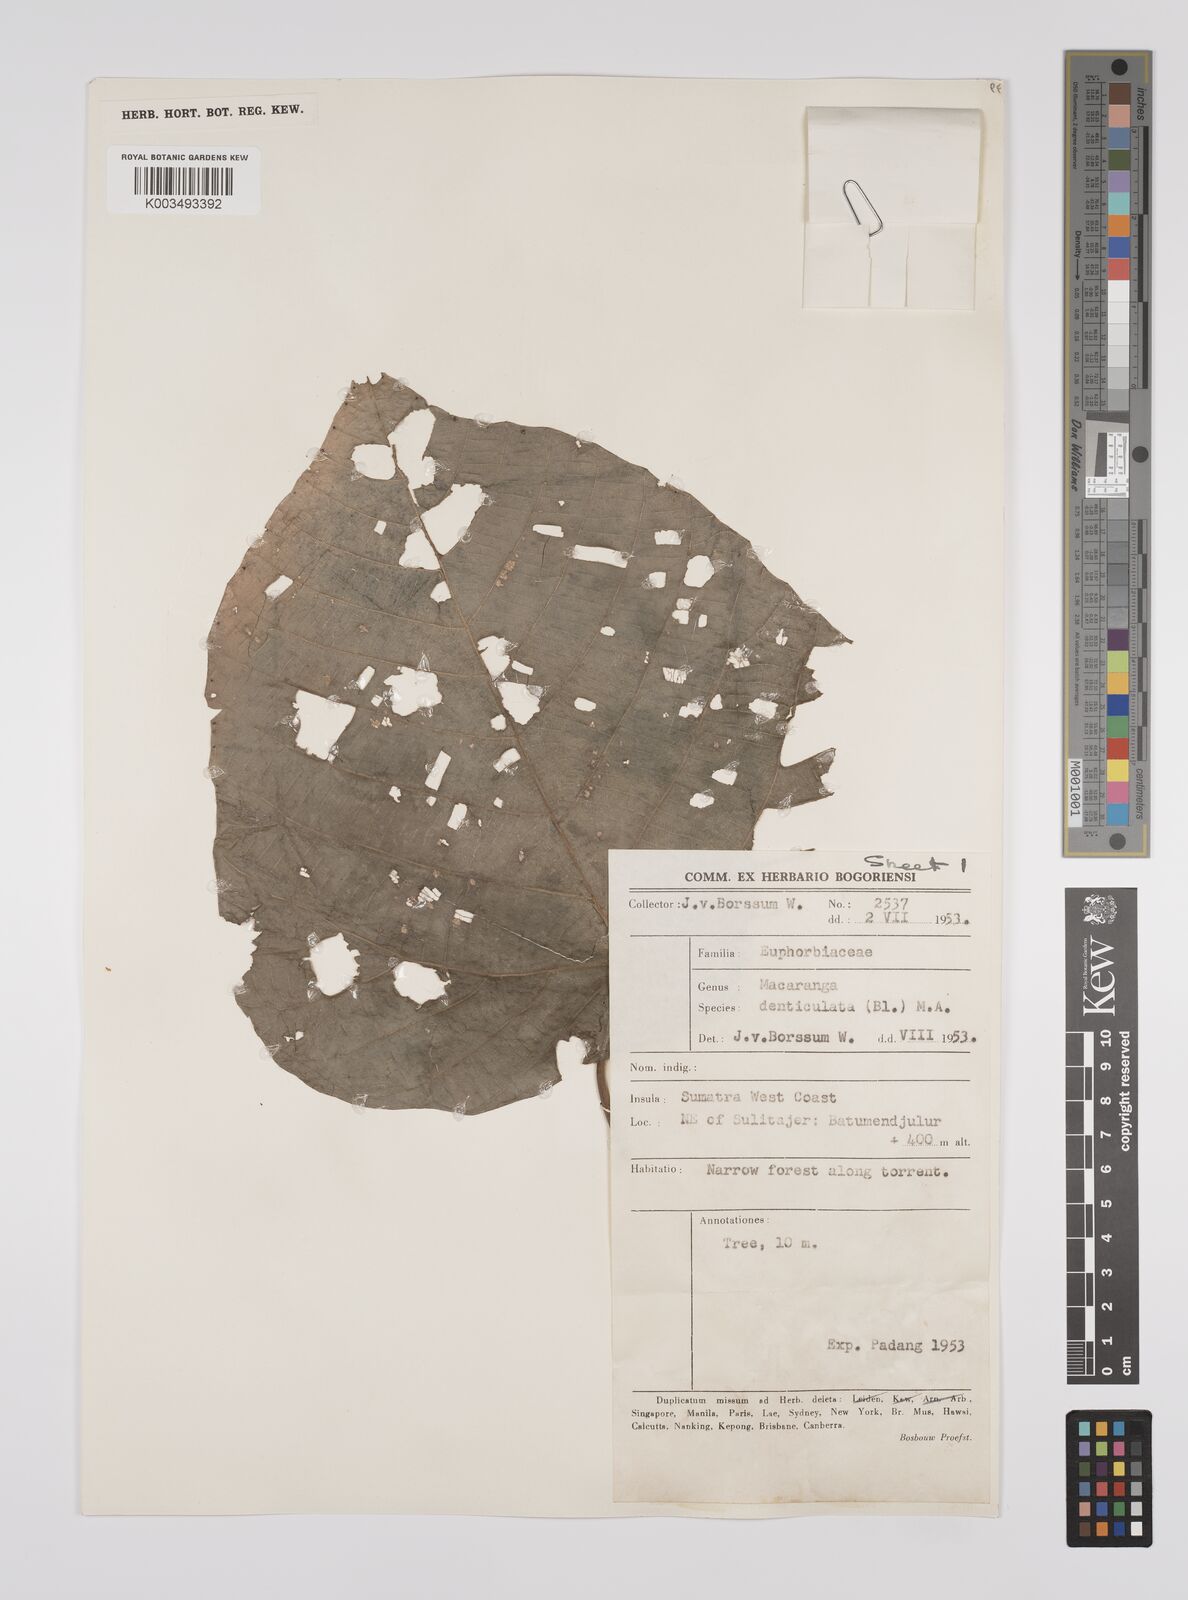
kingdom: Plantae
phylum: Tracheophyta
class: Magnoliopsida
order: Malpighiales
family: Euphorbiaceae
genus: Macaranga
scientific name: Macaranga denticulata
